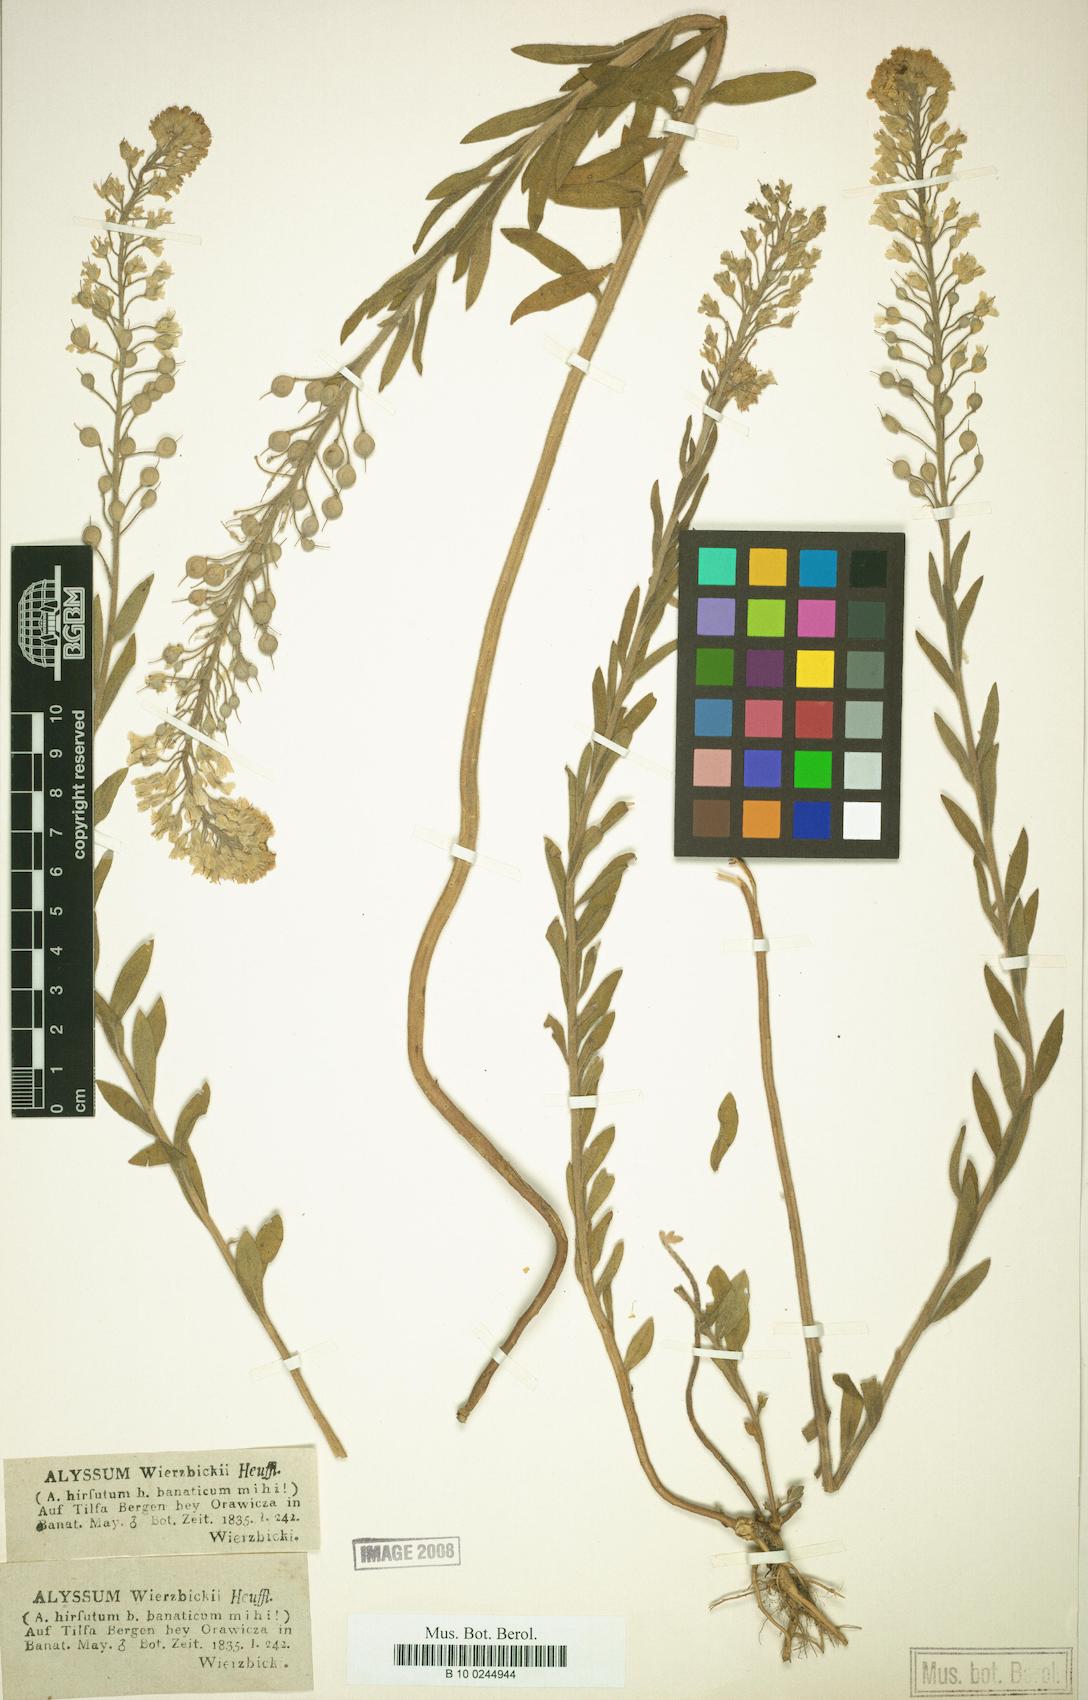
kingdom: Plantae
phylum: Tracheophyta
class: Magnoliopsida
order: Brassicales
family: Brassicaceae
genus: Alyssum
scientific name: Alyssum wierzbickii
